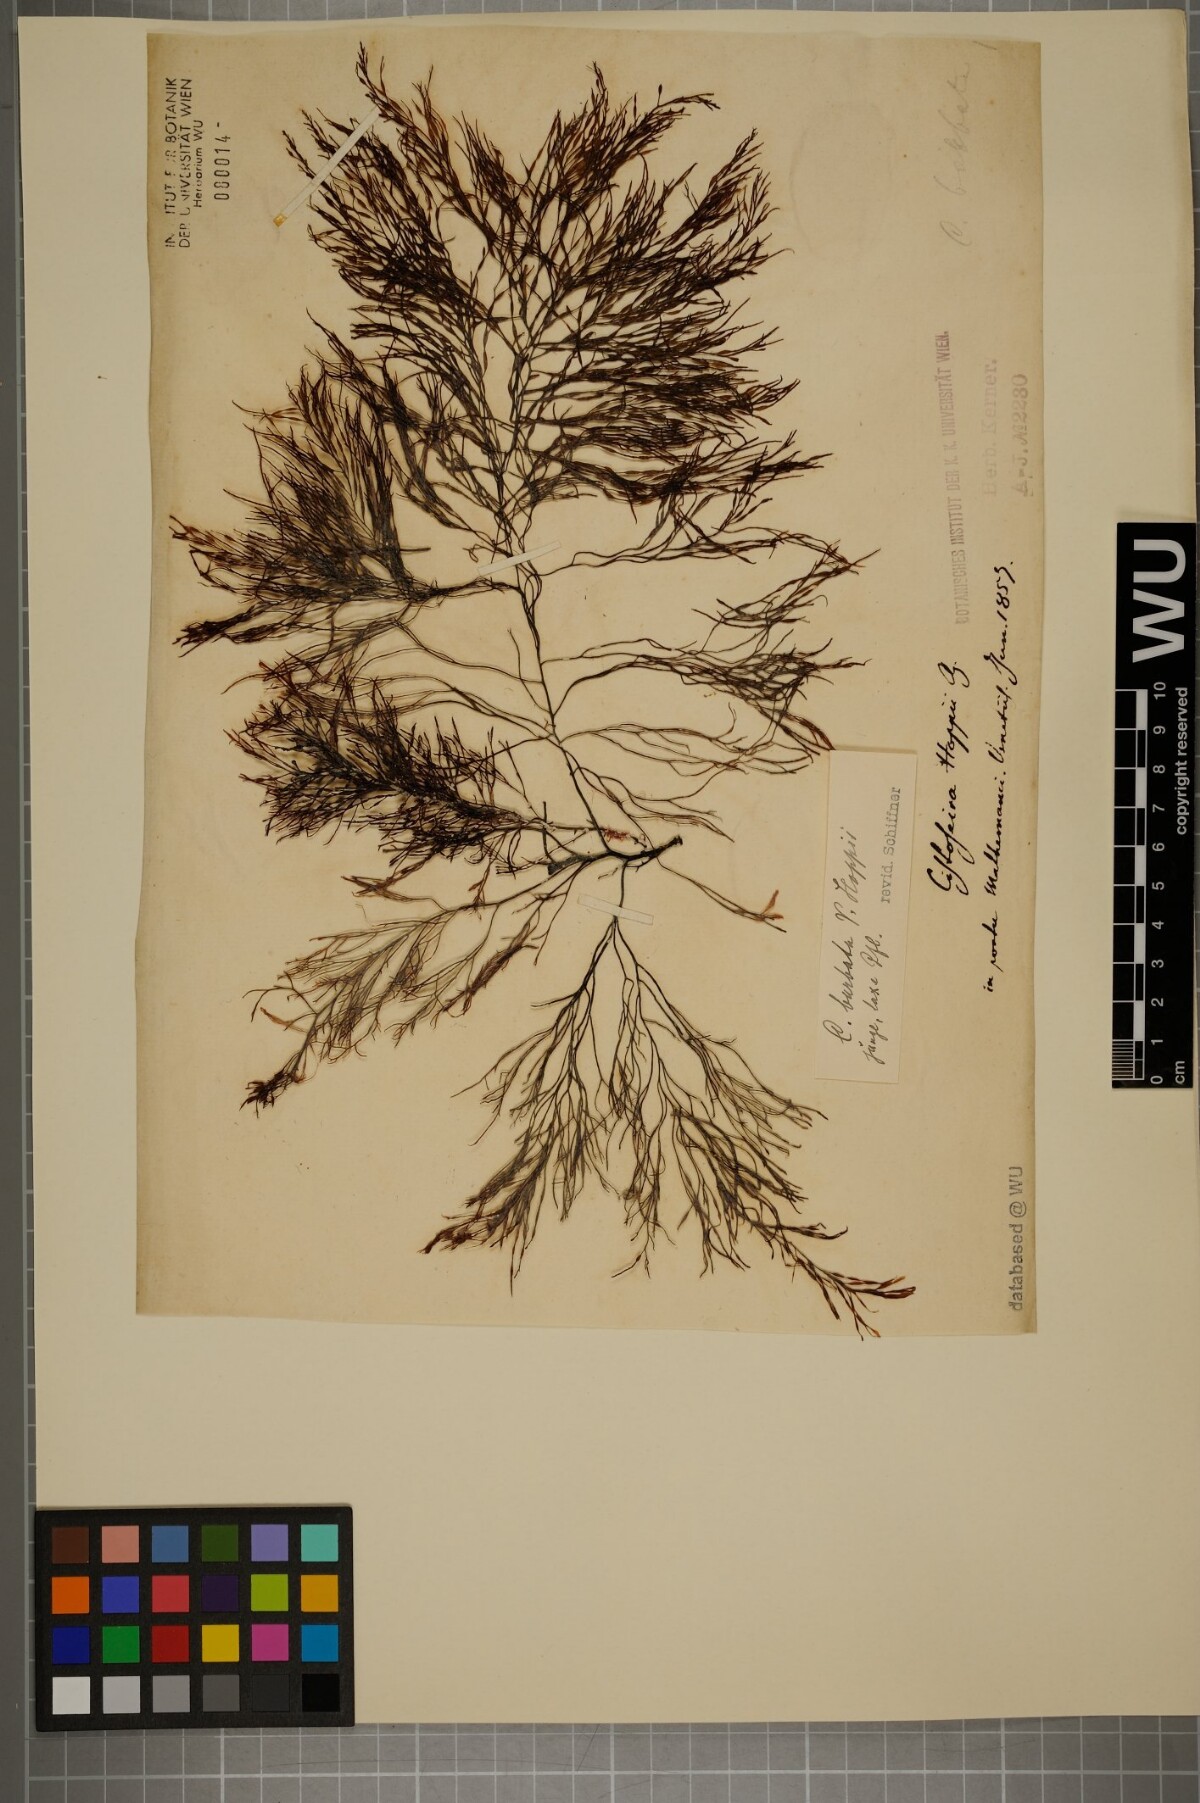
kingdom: Chromista
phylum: Ochrophyta
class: Phaeophyceae
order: Fucales
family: Sargassaceae
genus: Cystoseira
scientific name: Cystoseira Gongolaria barbata
